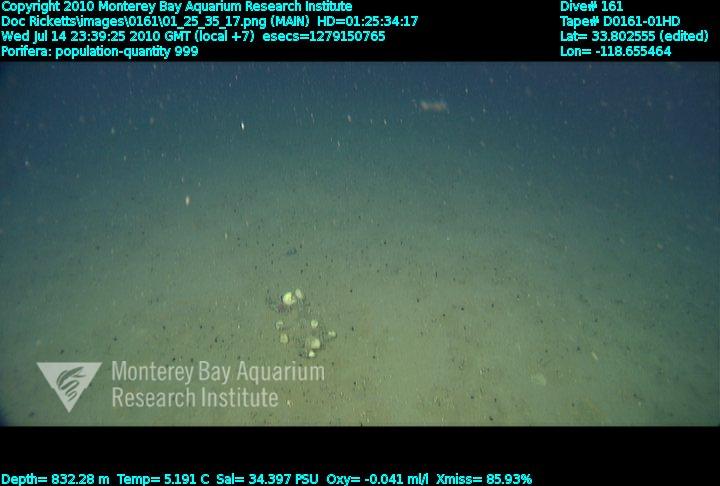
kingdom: Animalia
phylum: Porifera
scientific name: Porifera
